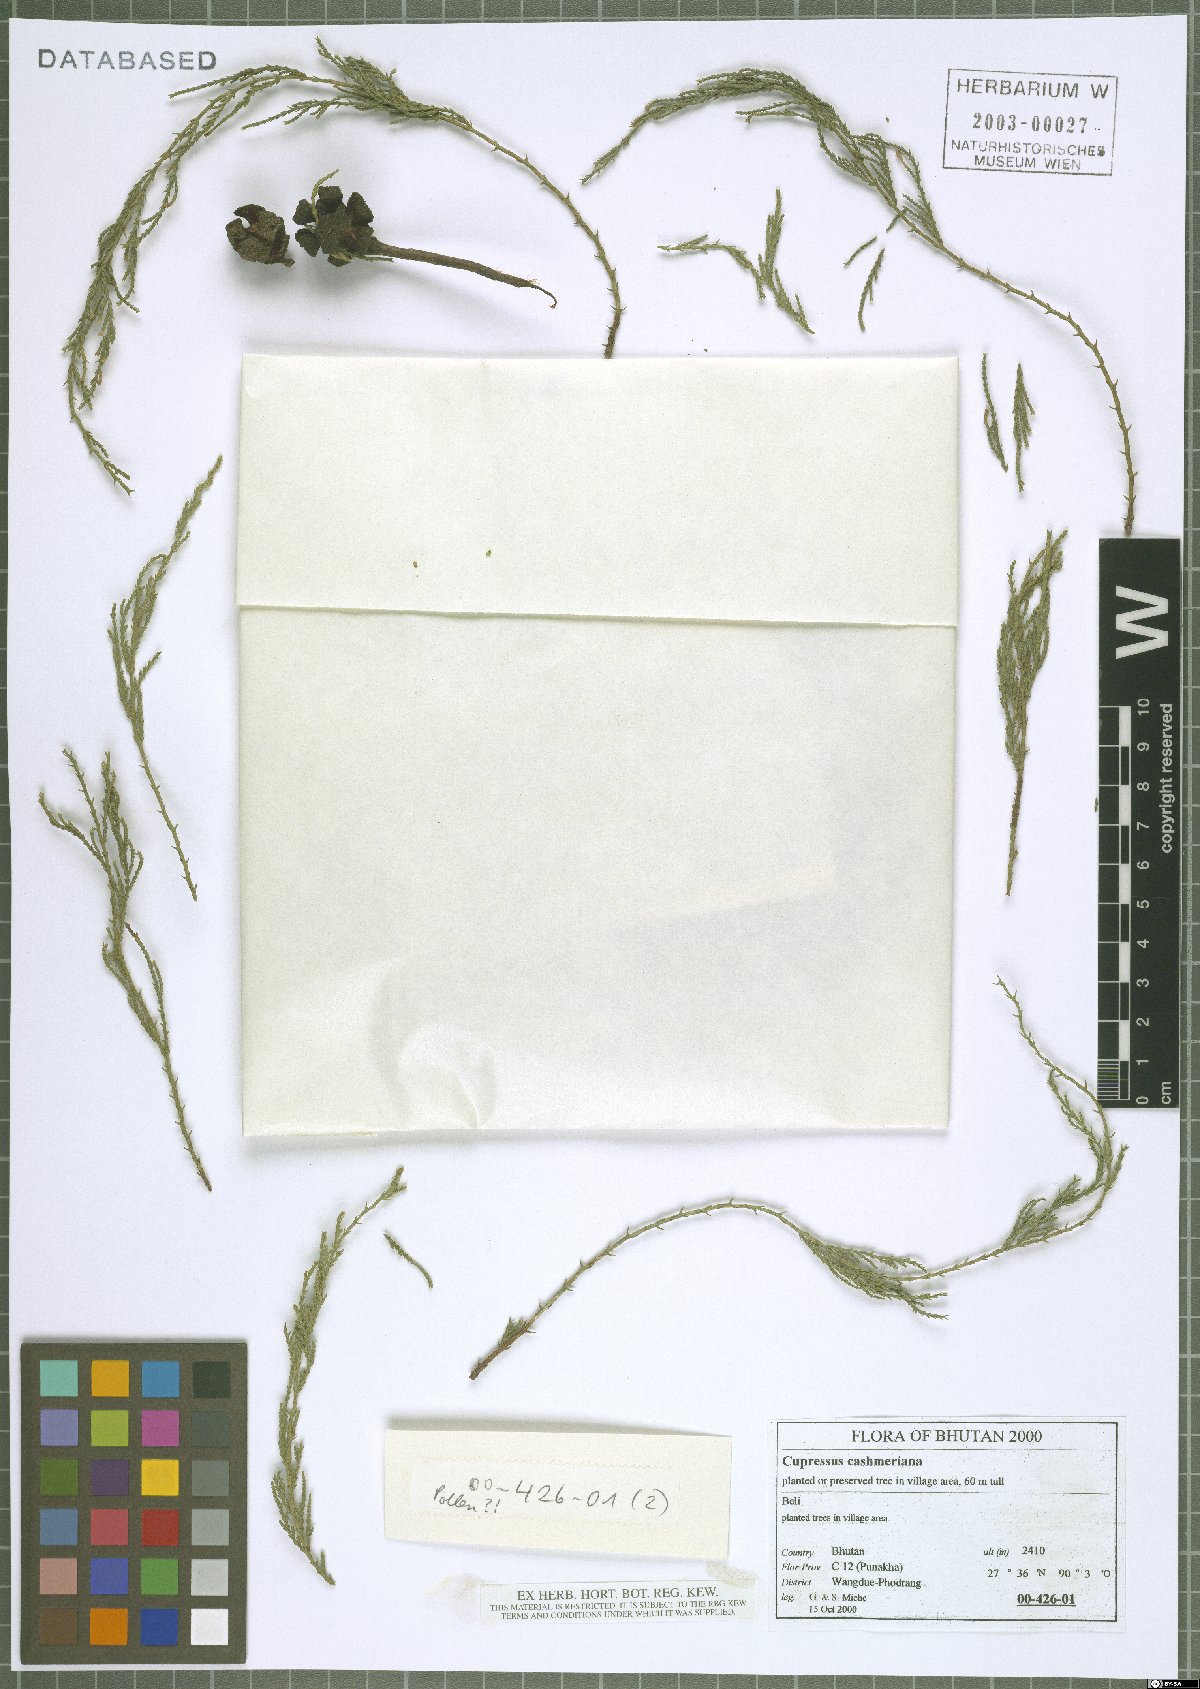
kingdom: Plantae
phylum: Tracheophyta
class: Pinopsida
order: Pinales
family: Cupressaceae
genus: Cupressus
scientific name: Cupressus cashmeriana
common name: Bhutan cypress
